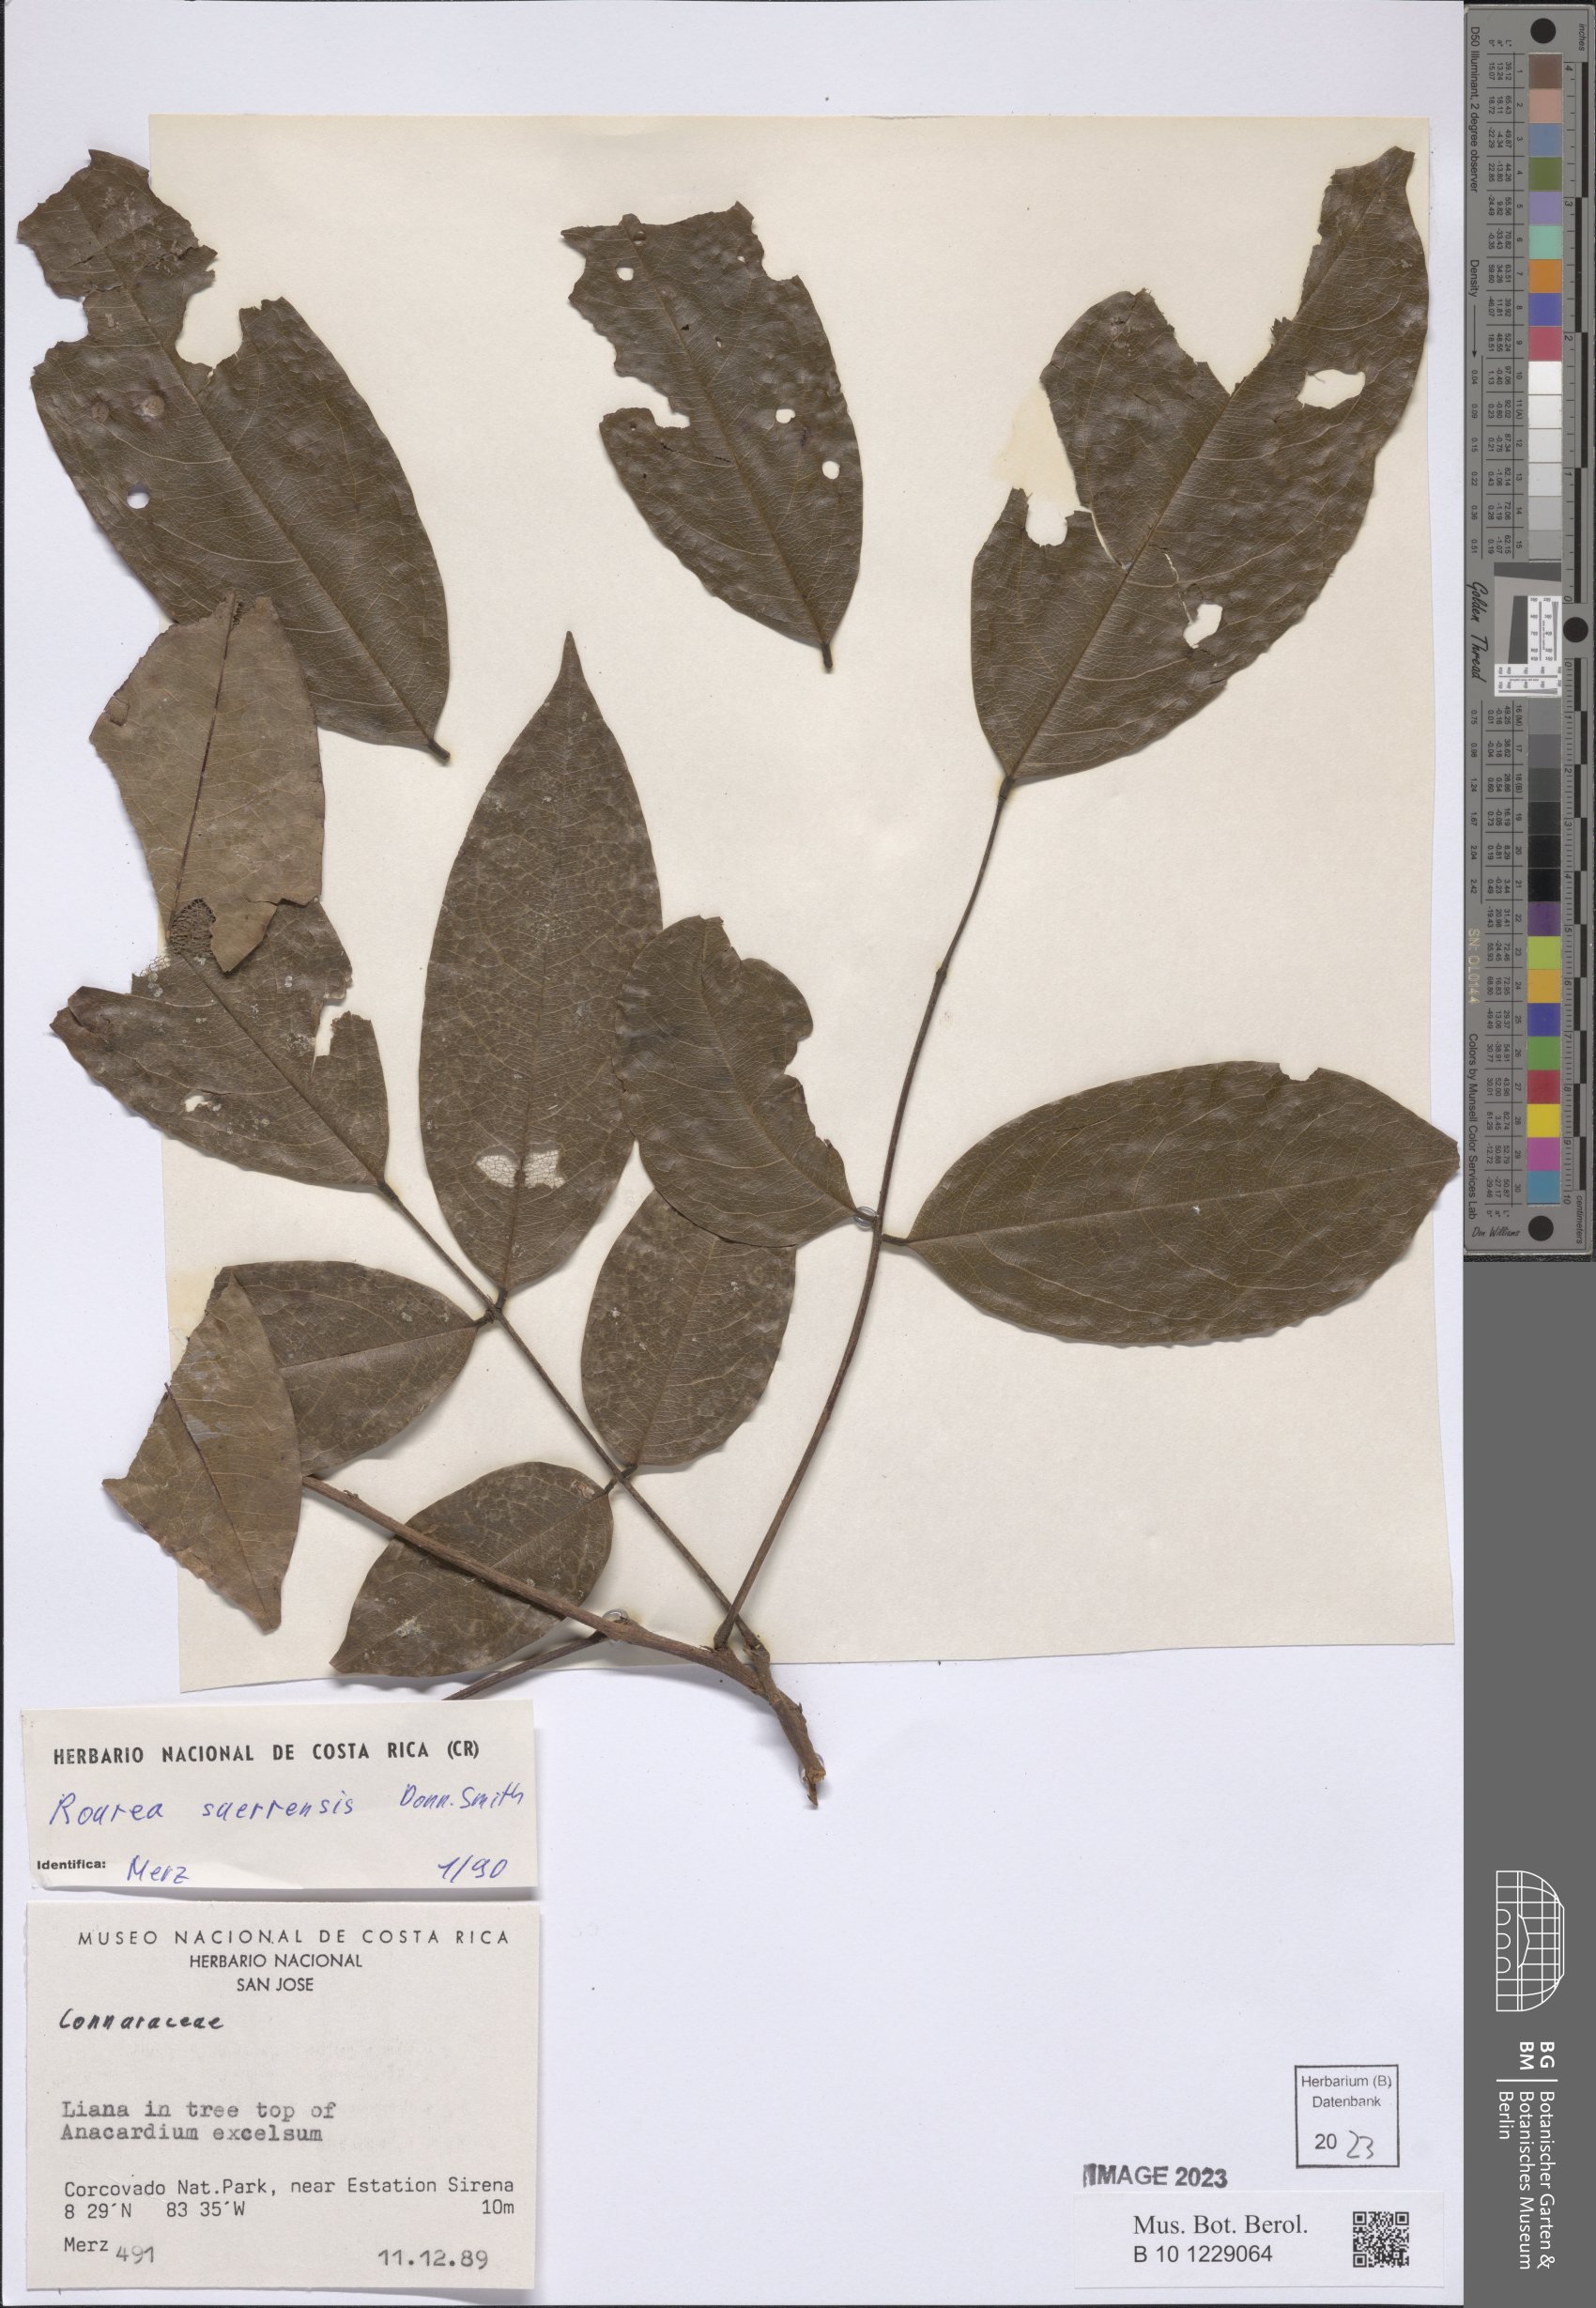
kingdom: Plantae
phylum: Tracheophyta
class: Magnoliopsida
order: Oxalidales
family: Connaraceae
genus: Rourea
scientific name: Rourea suerrensis
